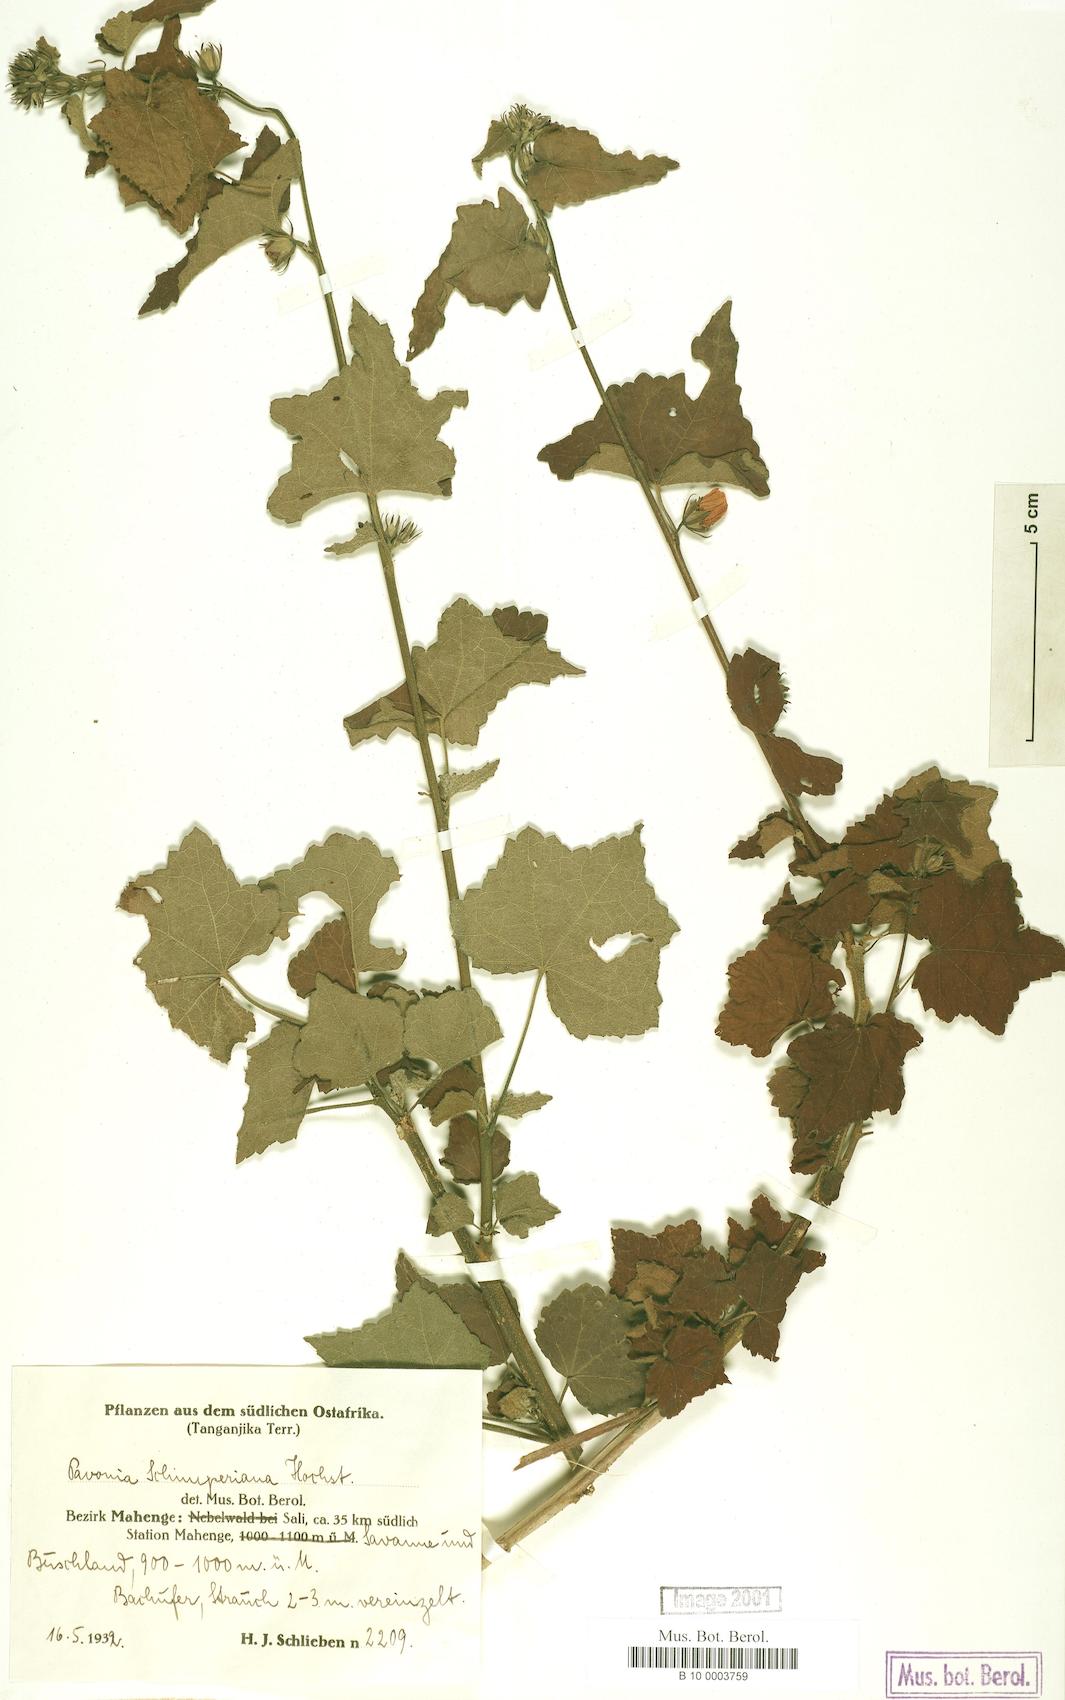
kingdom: Plantae
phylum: Tracheophyta
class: Magnoliopsida
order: Malvales
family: Malvaceae
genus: Pavonia
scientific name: Pavonia schimperiana
